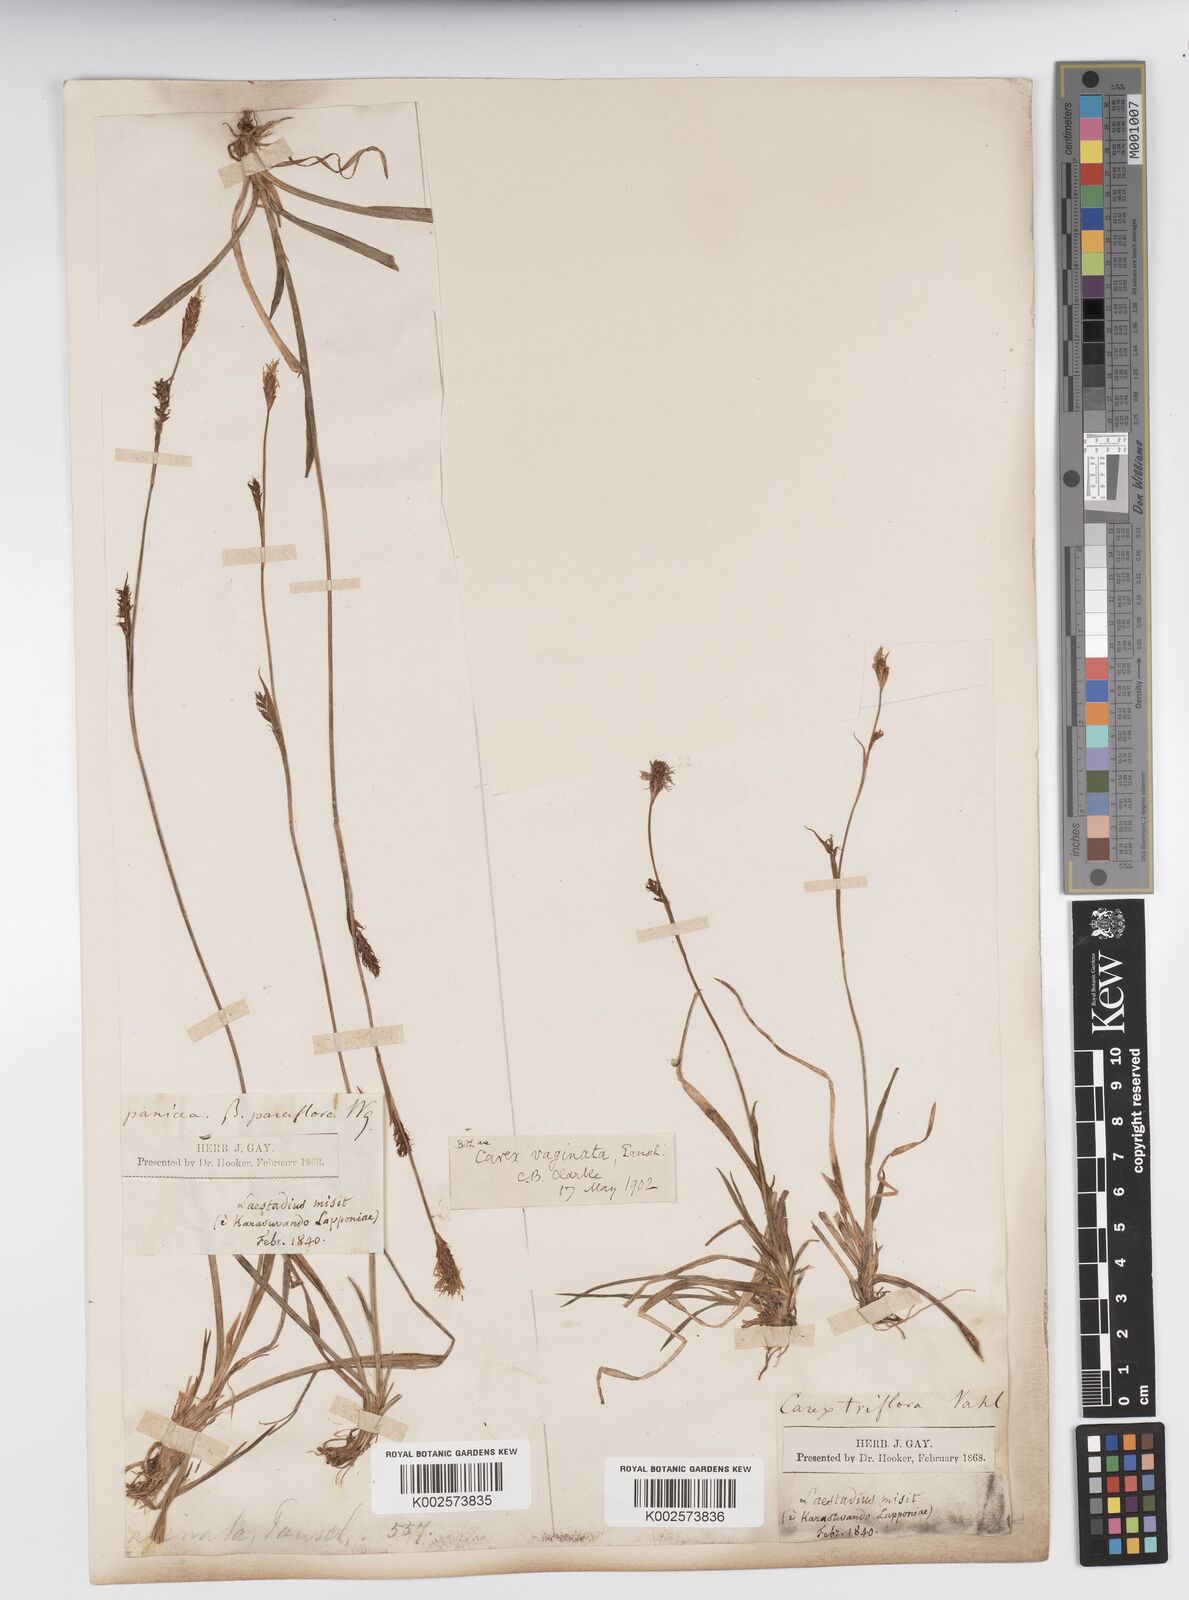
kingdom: Plantae
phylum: Tracheophyta
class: Liliopsida
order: Poales
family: Cyperaceae
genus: Carex
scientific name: Carex vaginata
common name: Sheathed sedge
